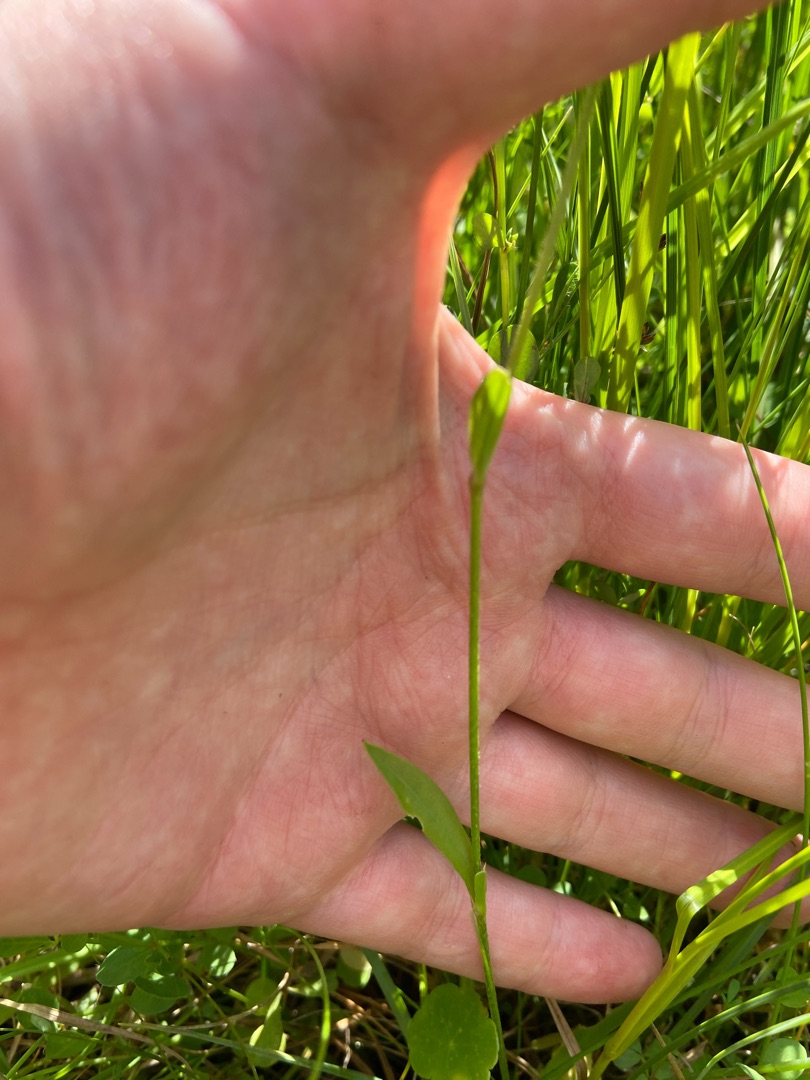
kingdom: Plantae
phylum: Tracheophyta
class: Magnoliopsida
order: Caryophyllales
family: Caryophyllaceae
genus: Silene
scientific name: Silene flos-cuculi
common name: Trævlekrone
